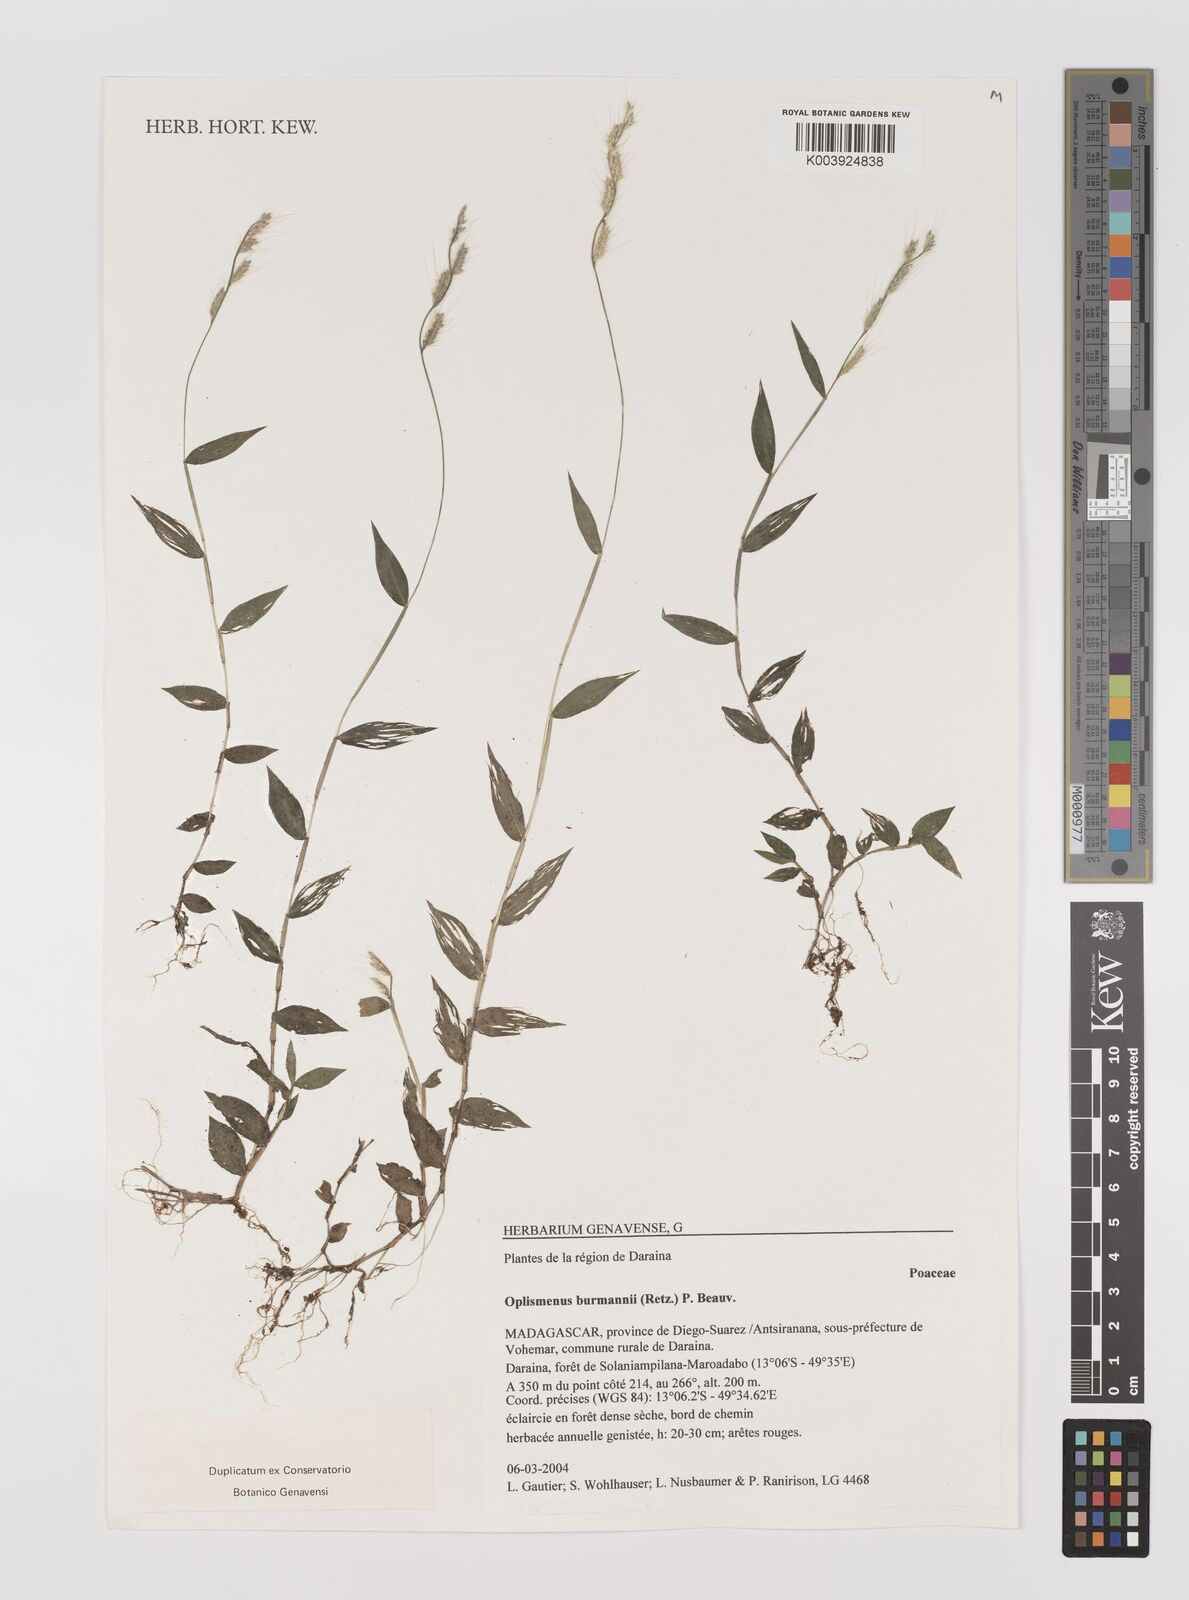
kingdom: Plantae
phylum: Tracheophyta
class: Liliopsida
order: Poales
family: Poaceae
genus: Oplismenus
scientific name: Oplismenus burmanni
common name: Burmann's basketgrass
